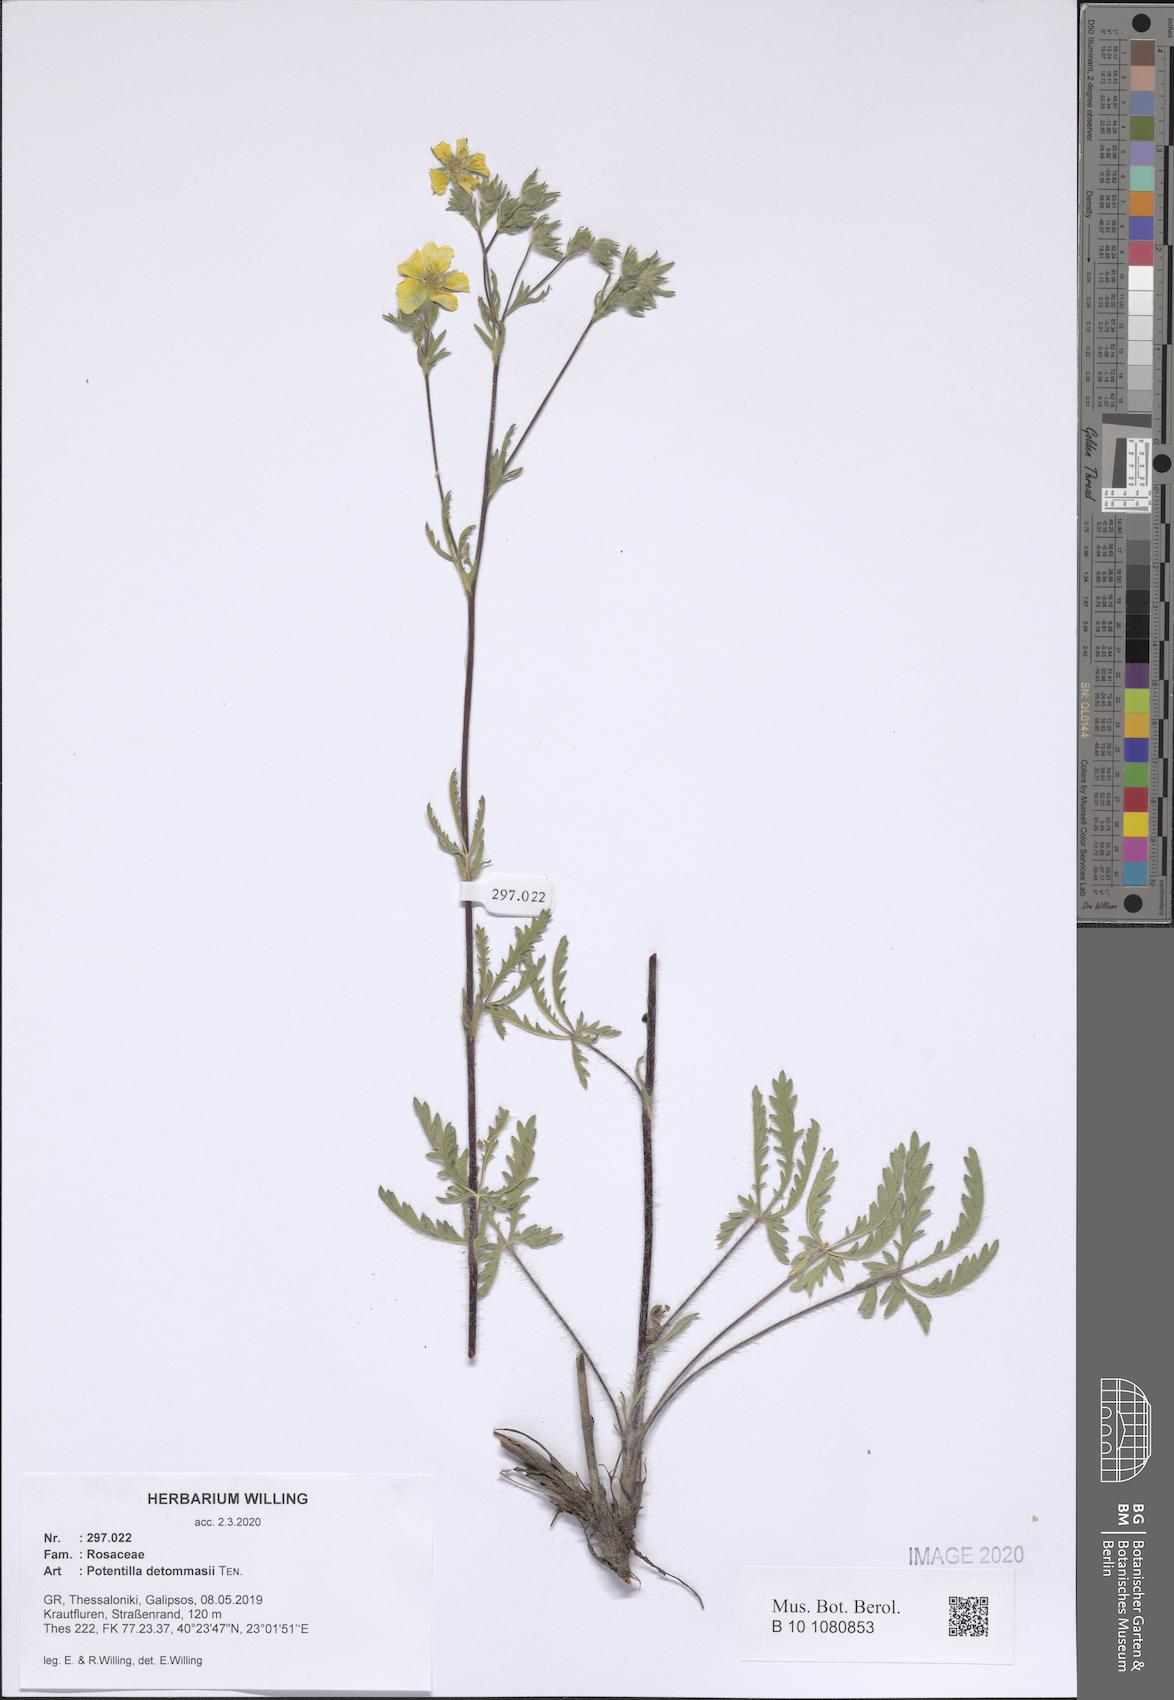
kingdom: Plantae
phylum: Tracheophyta
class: Magnoliopsida
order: Rosales
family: Rosaceae
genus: Potentilla
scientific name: Potentilla detommasii
